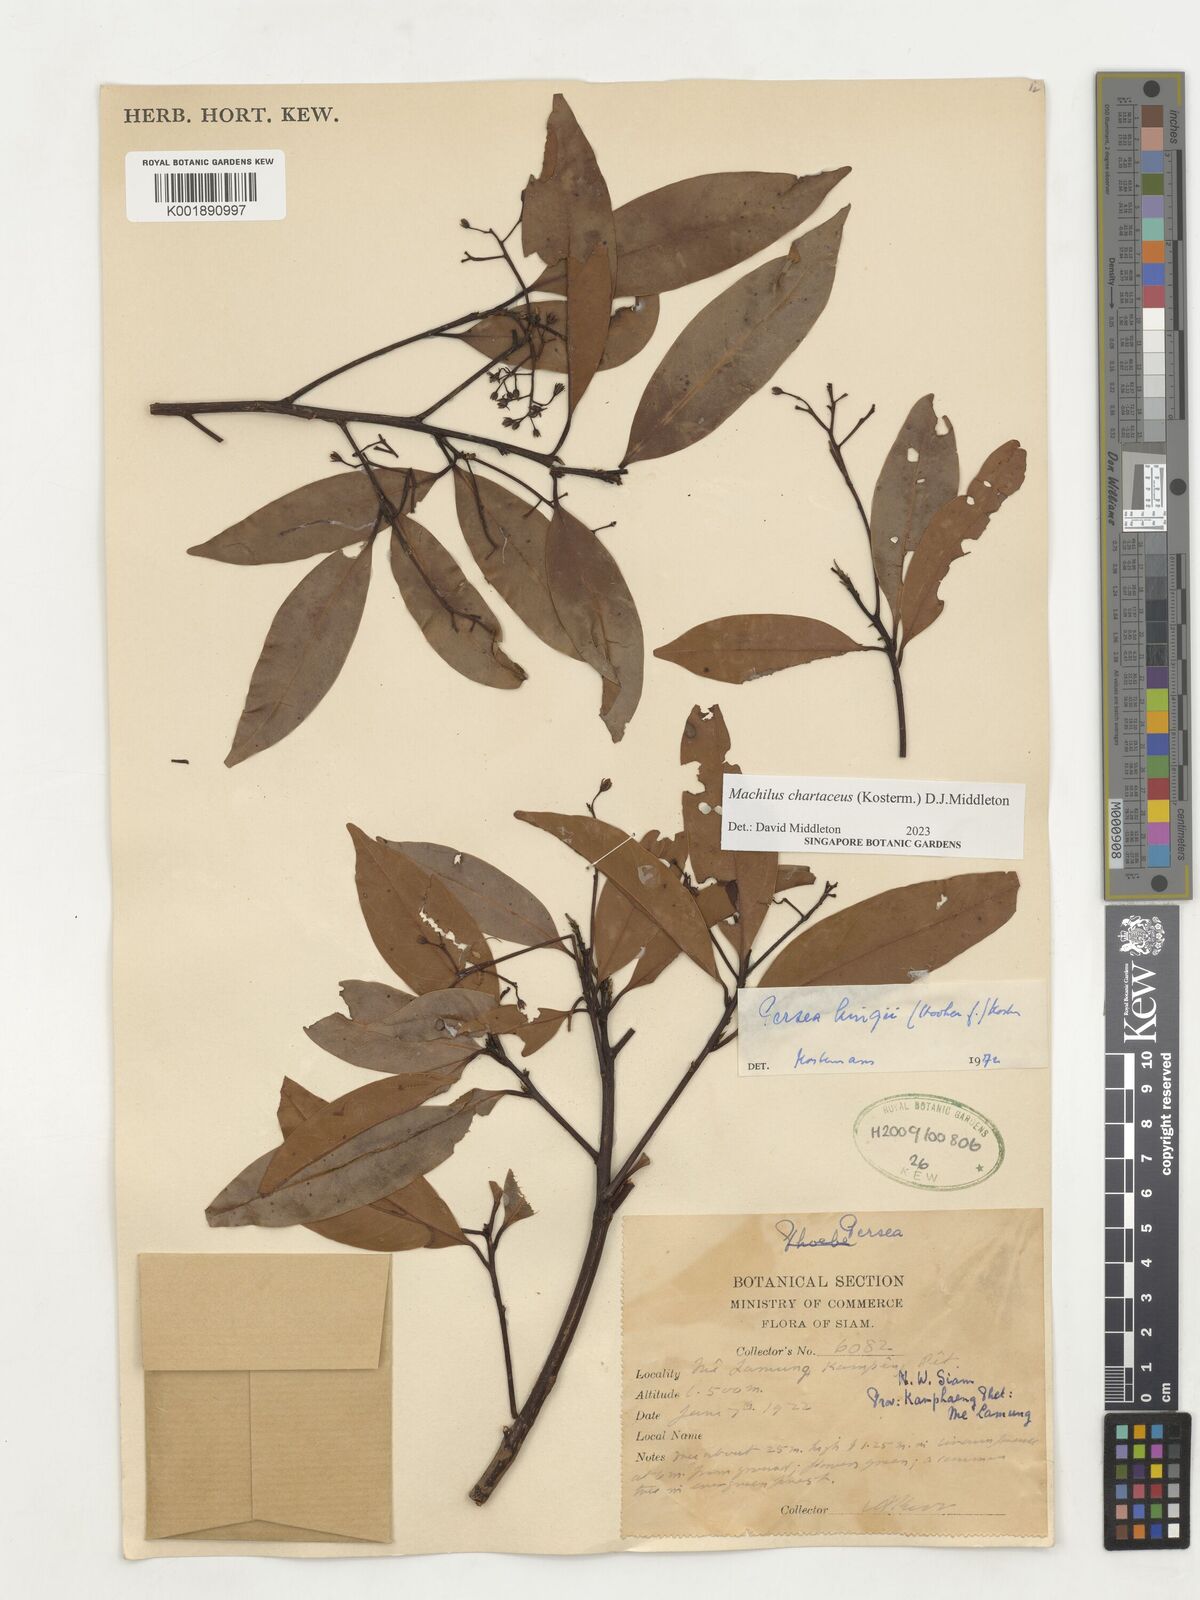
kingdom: Plantae
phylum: Tracheophyta
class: Magnoliopsida
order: Laurales
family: Lauraceae
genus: Machilus
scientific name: Machilus
